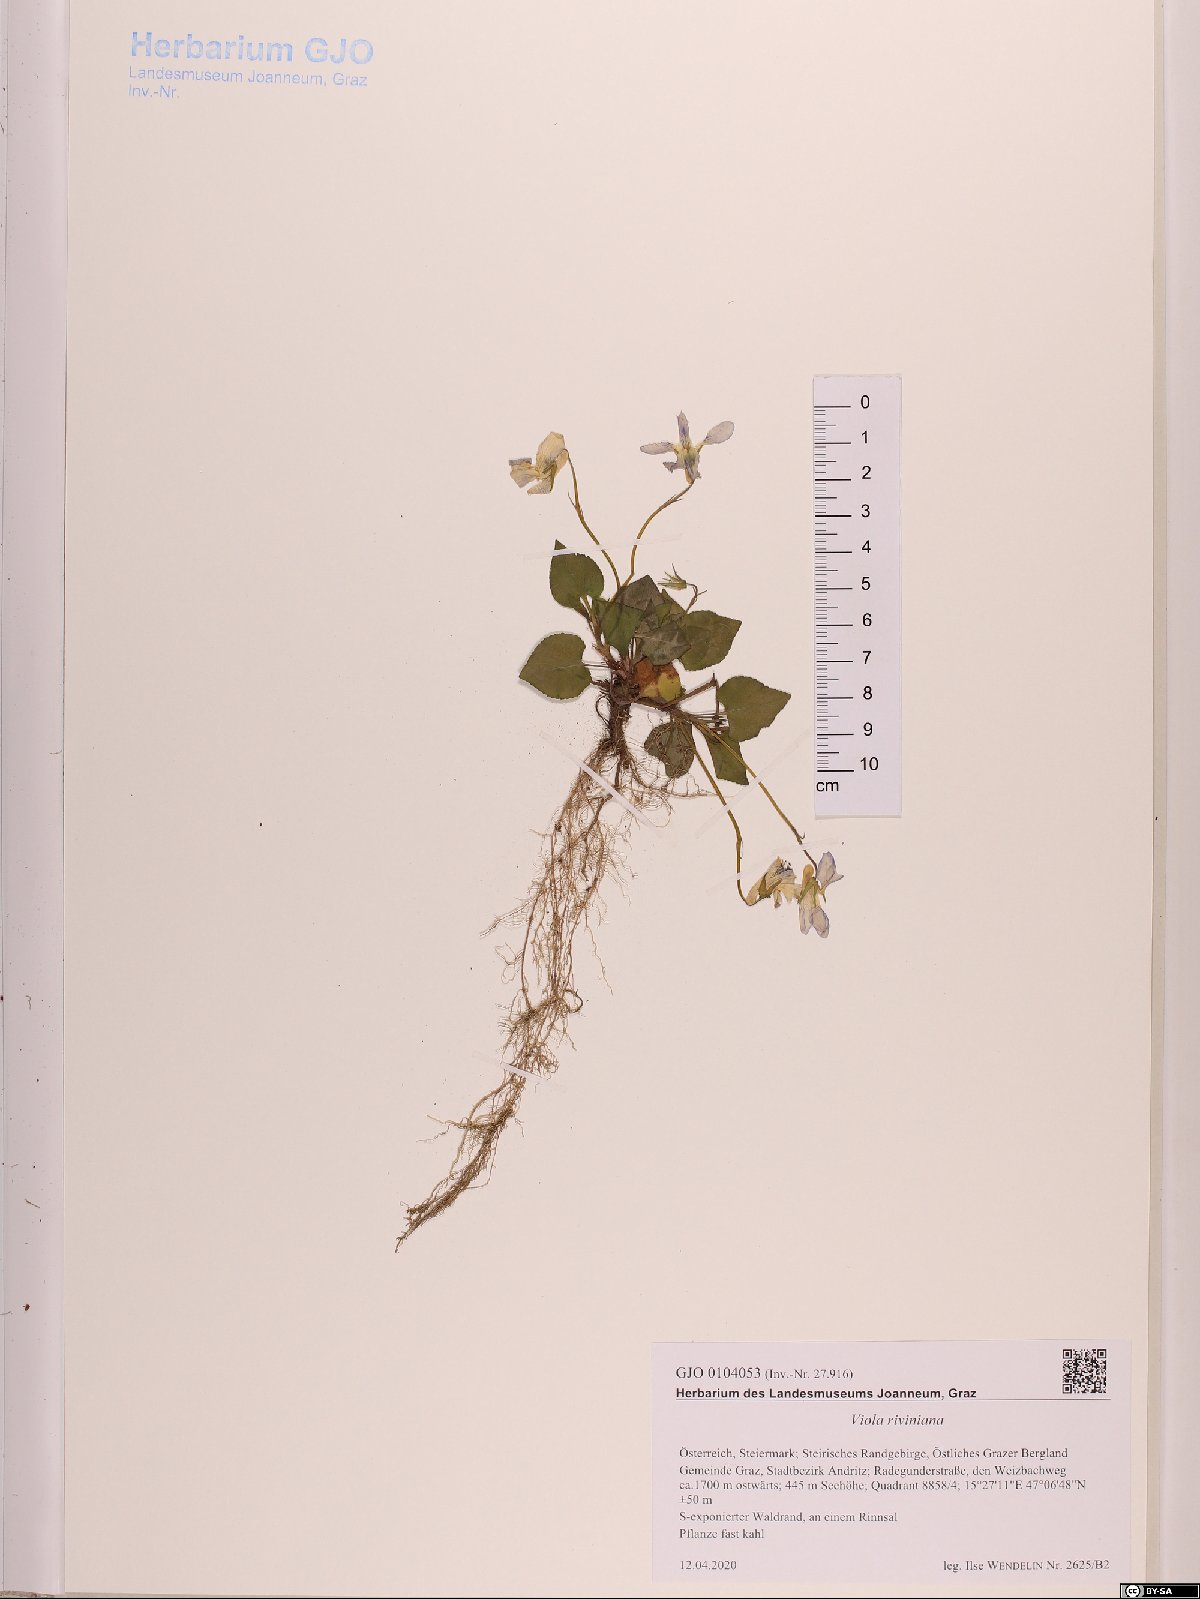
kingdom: Plantae
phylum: Tracheophyta
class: Magnoliopsida
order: Malpighiales
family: Violaceae
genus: Viola
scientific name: Viola riviniana
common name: Common dog-violet
